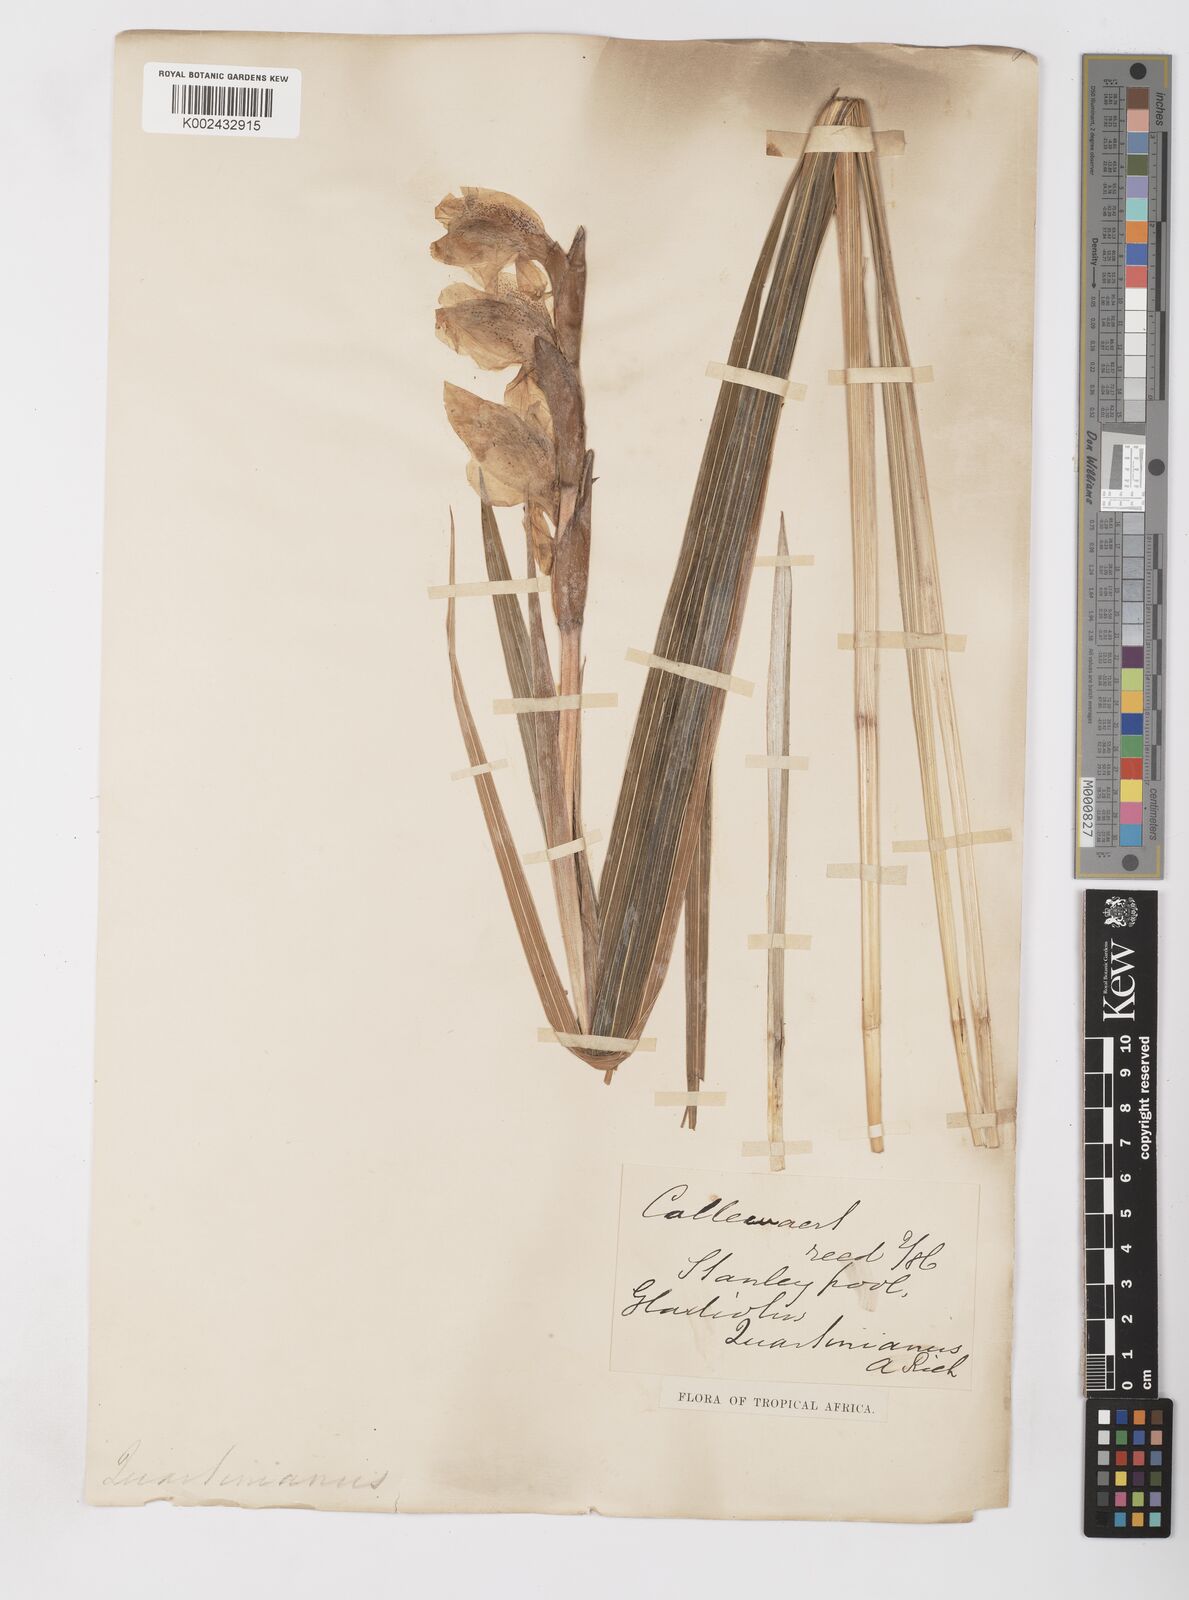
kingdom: Plantae
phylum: Tracheophyta
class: Liliopsida
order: Asparagales
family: Iridaceae
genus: Gladiolus
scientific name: Gladiolus dalenii
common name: Cornflag
